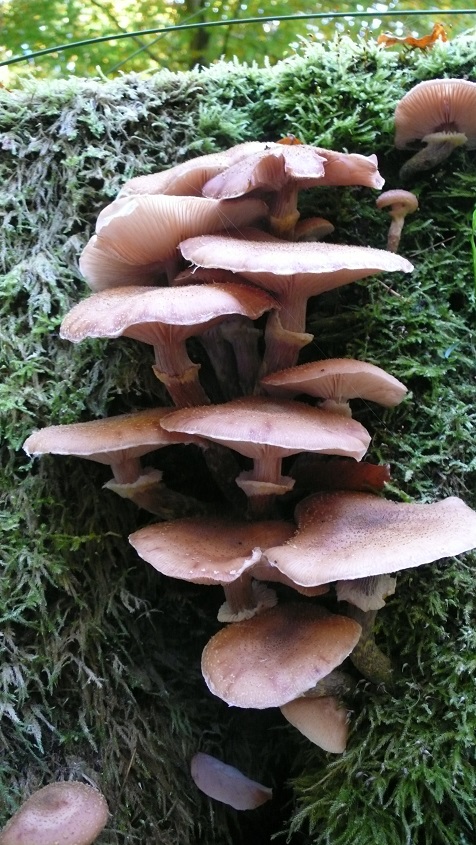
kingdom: Fungi
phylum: Basidiomycota
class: Agaricomycetes
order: Agaricales
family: Physalacriaceae
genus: Armillaria
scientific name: Armillaria lutea
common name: køllestokket honningsvamp
